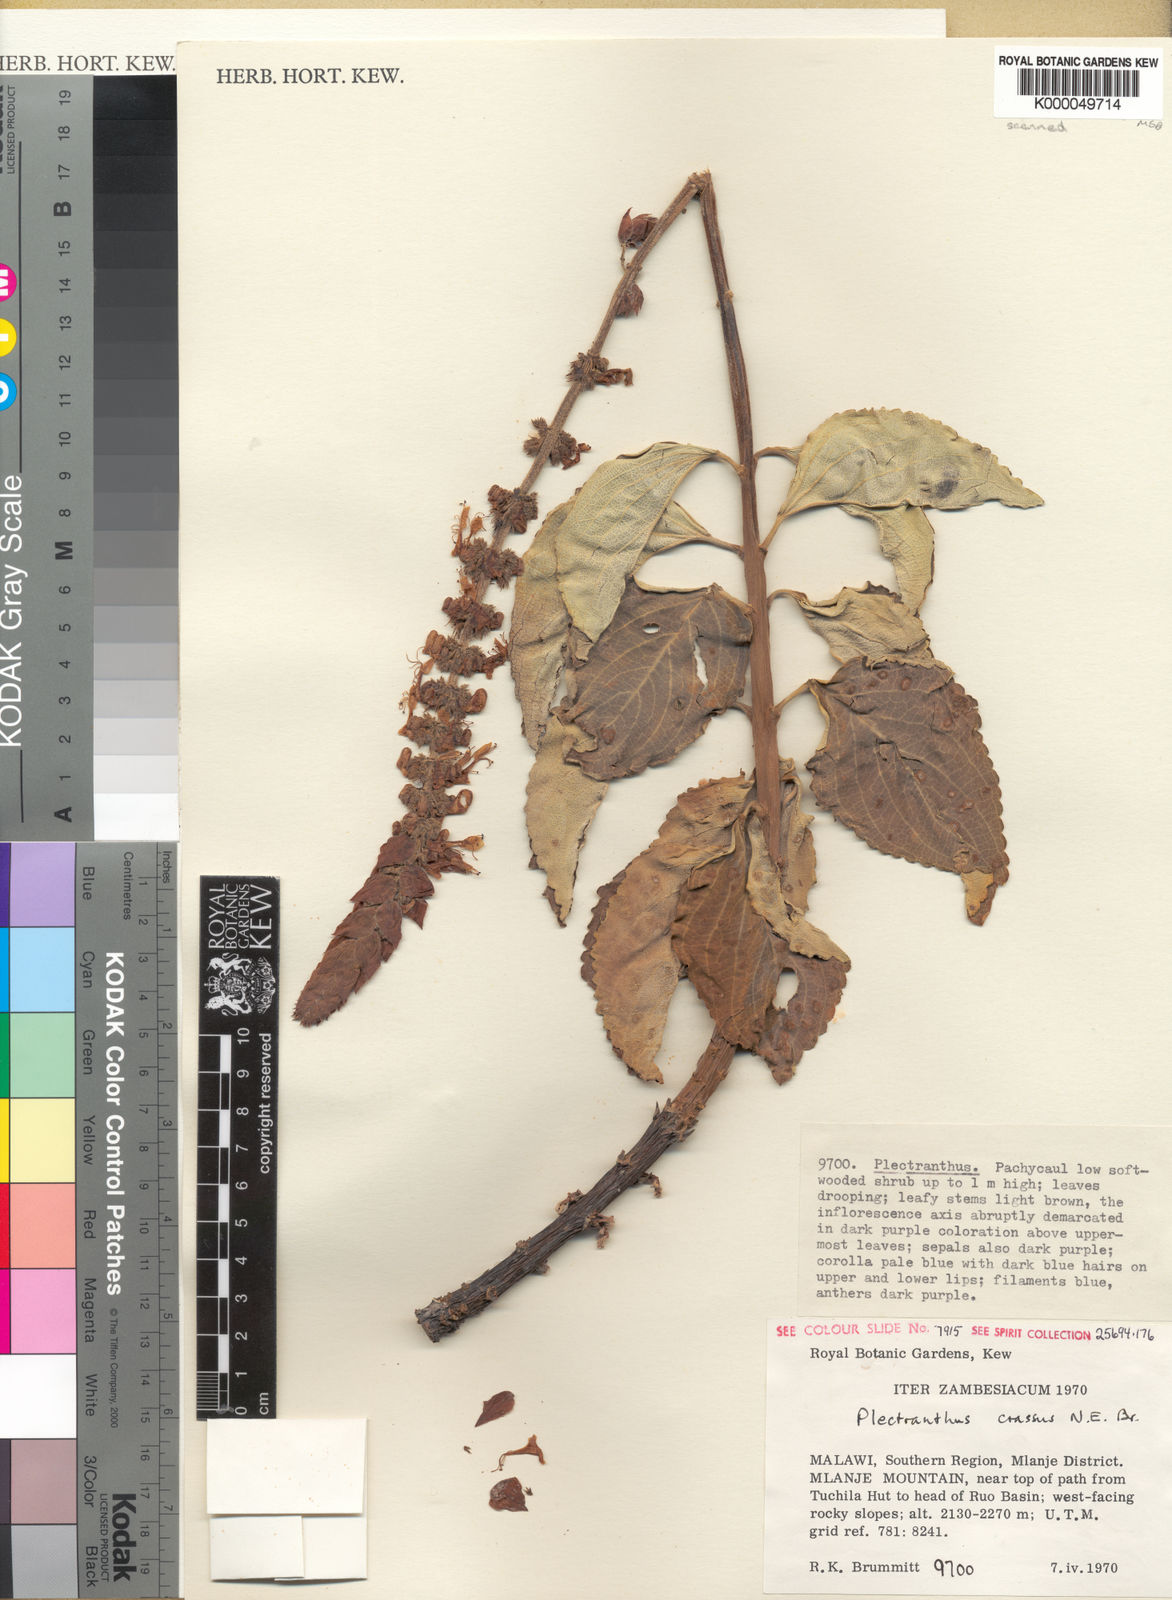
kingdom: Plantae
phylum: Tracheophyta
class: Magnoliopsida
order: Lamiales
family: Lamiaceae
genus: Coleus
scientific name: Coleus crassus
